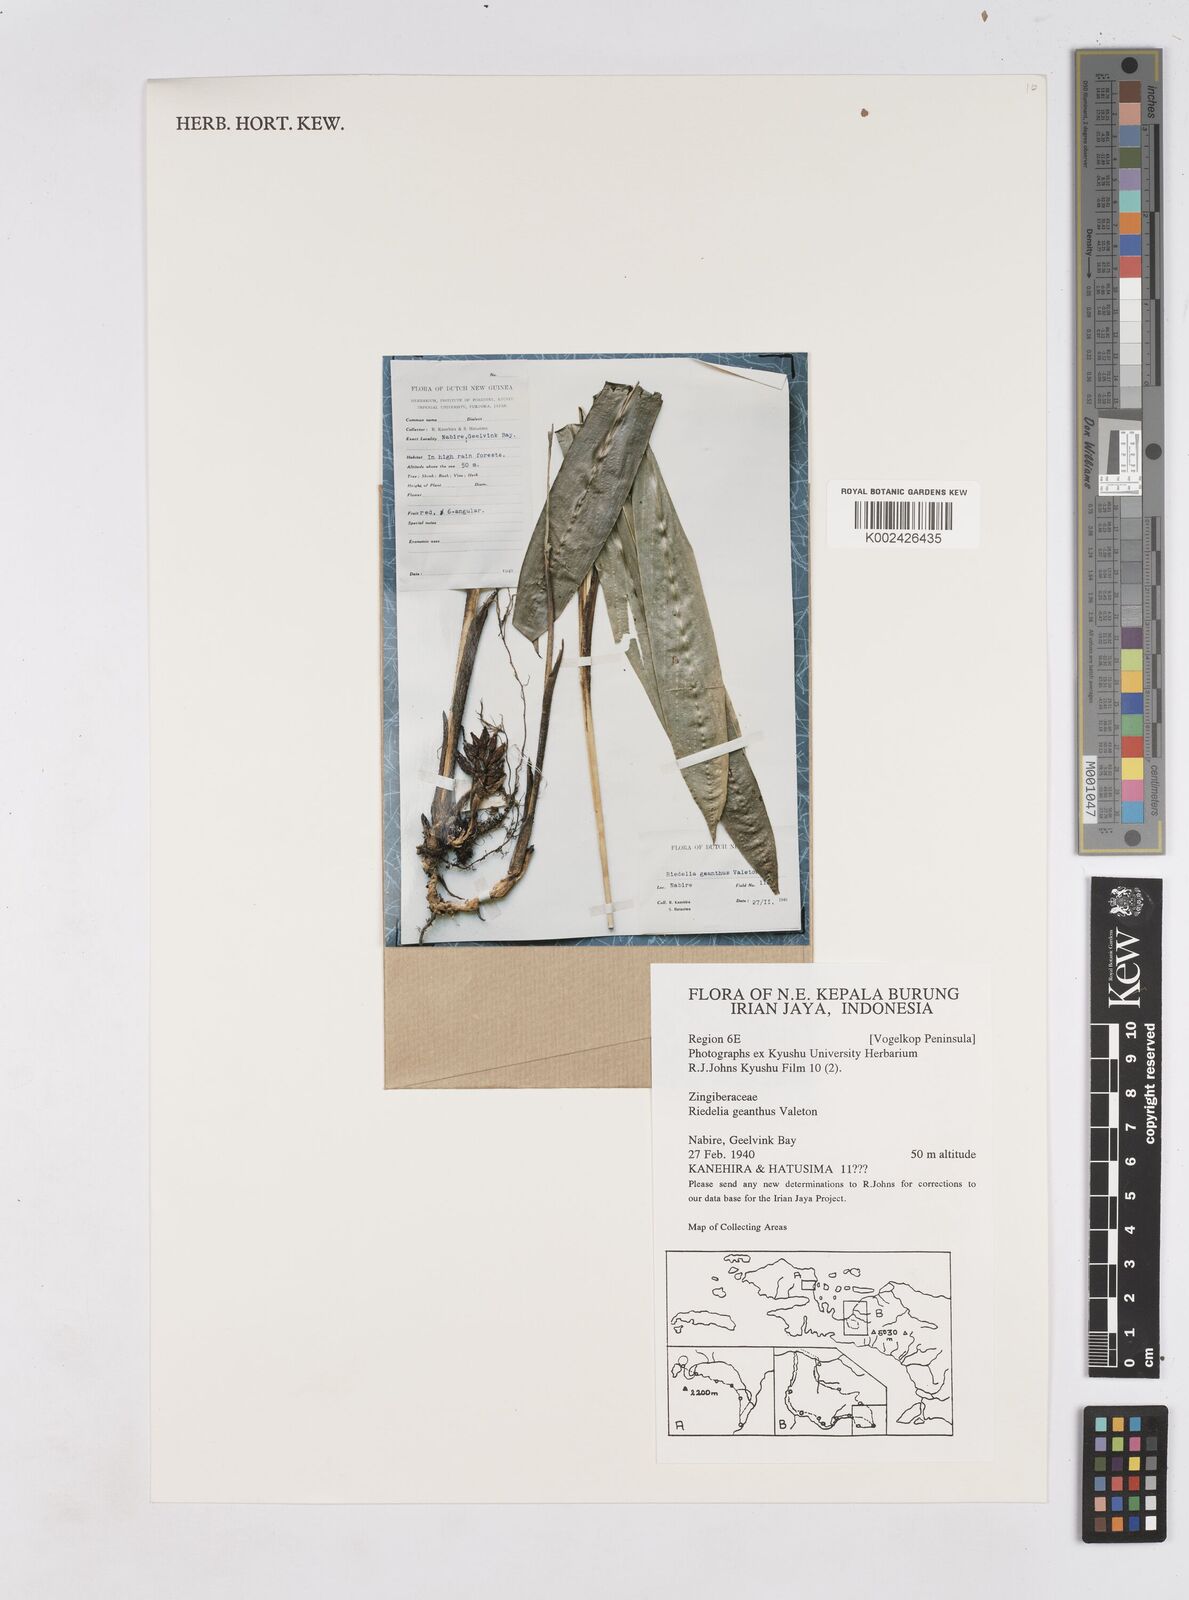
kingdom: Plantae
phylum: Tracheophyta
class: Liliopsida
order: Zingiberales
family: Zingiberaceae
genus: Riedelia
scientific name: Riedelia geanthus
